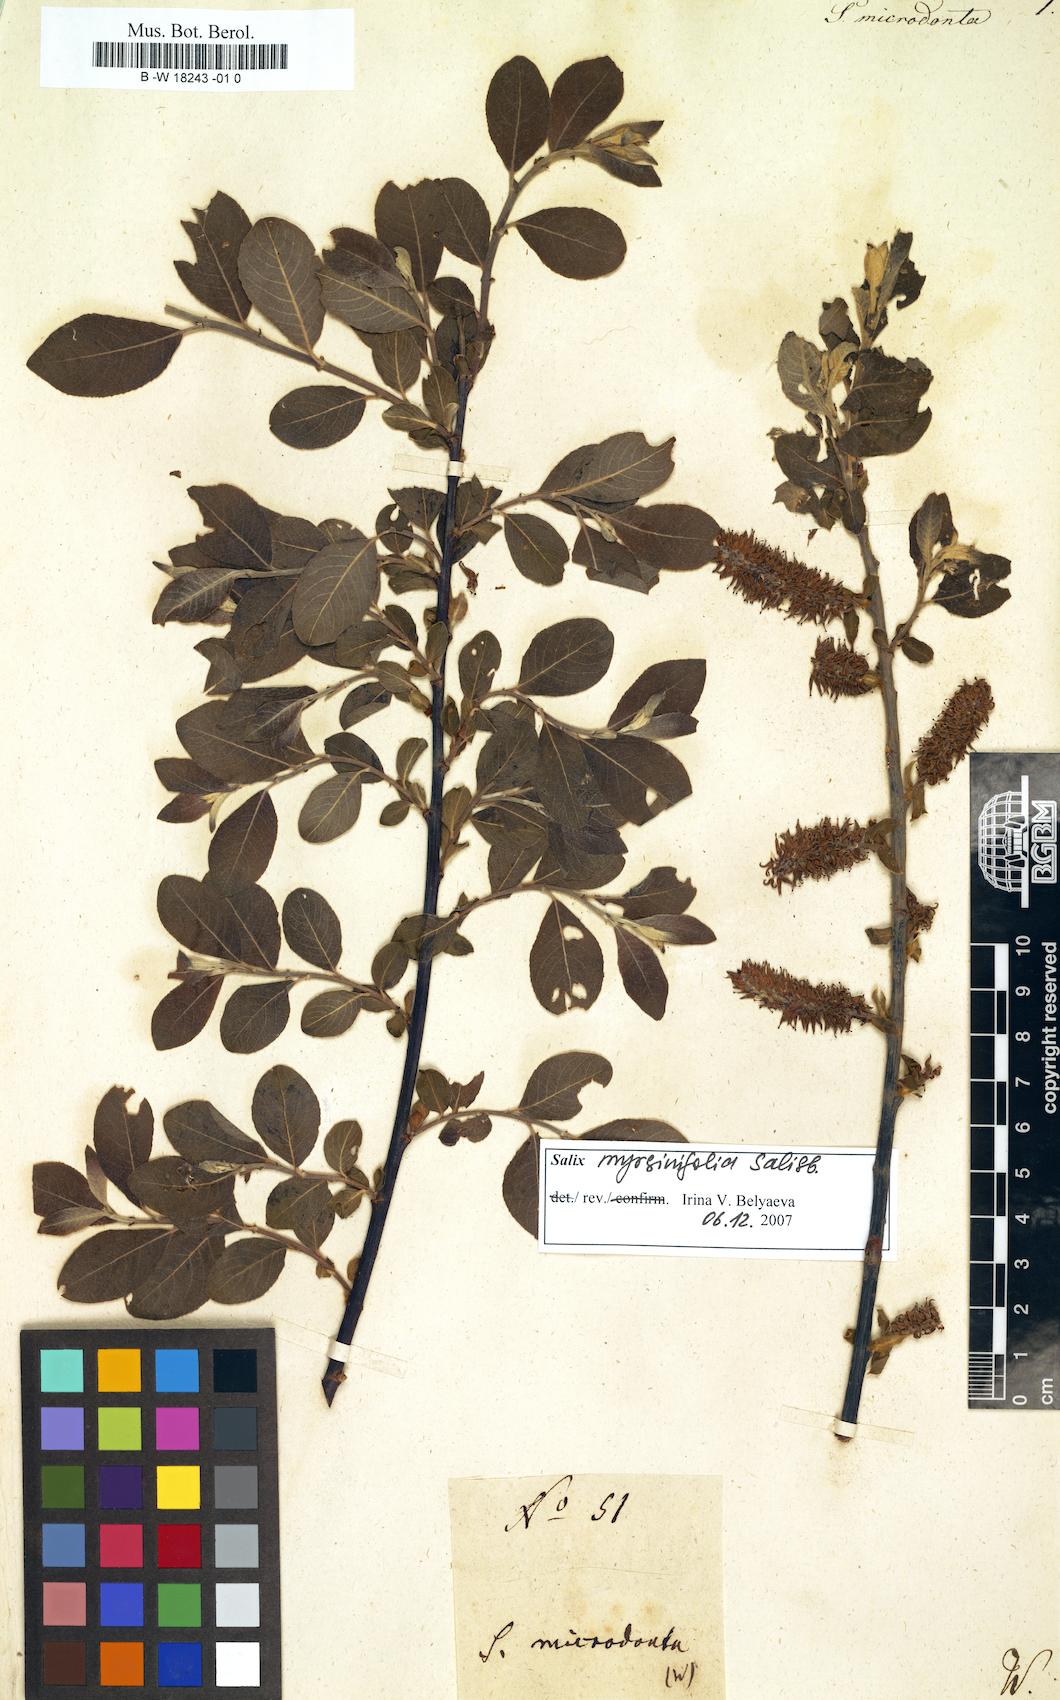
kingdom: Plantae
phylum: Tracheophyta
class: Magnoliopsida
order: Malpighiales
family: Salicaceae
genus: Salix
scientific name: Salix myrsinifolia
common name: Dark-leaved willow
